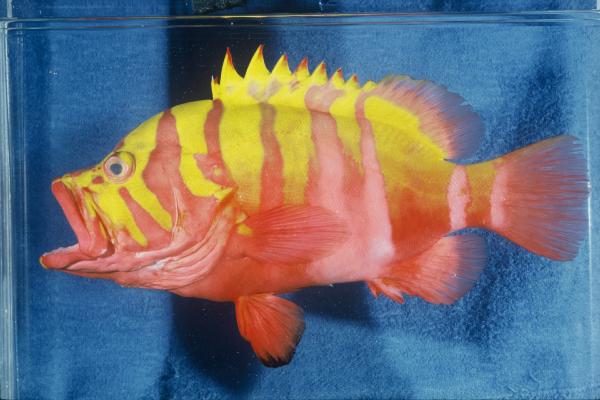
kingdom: Animalia
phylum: Chordata
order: Perciformes
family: Serranidae
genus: Cephalopholis
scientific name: Cephalopholis igarashiensis
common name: Garish hind
